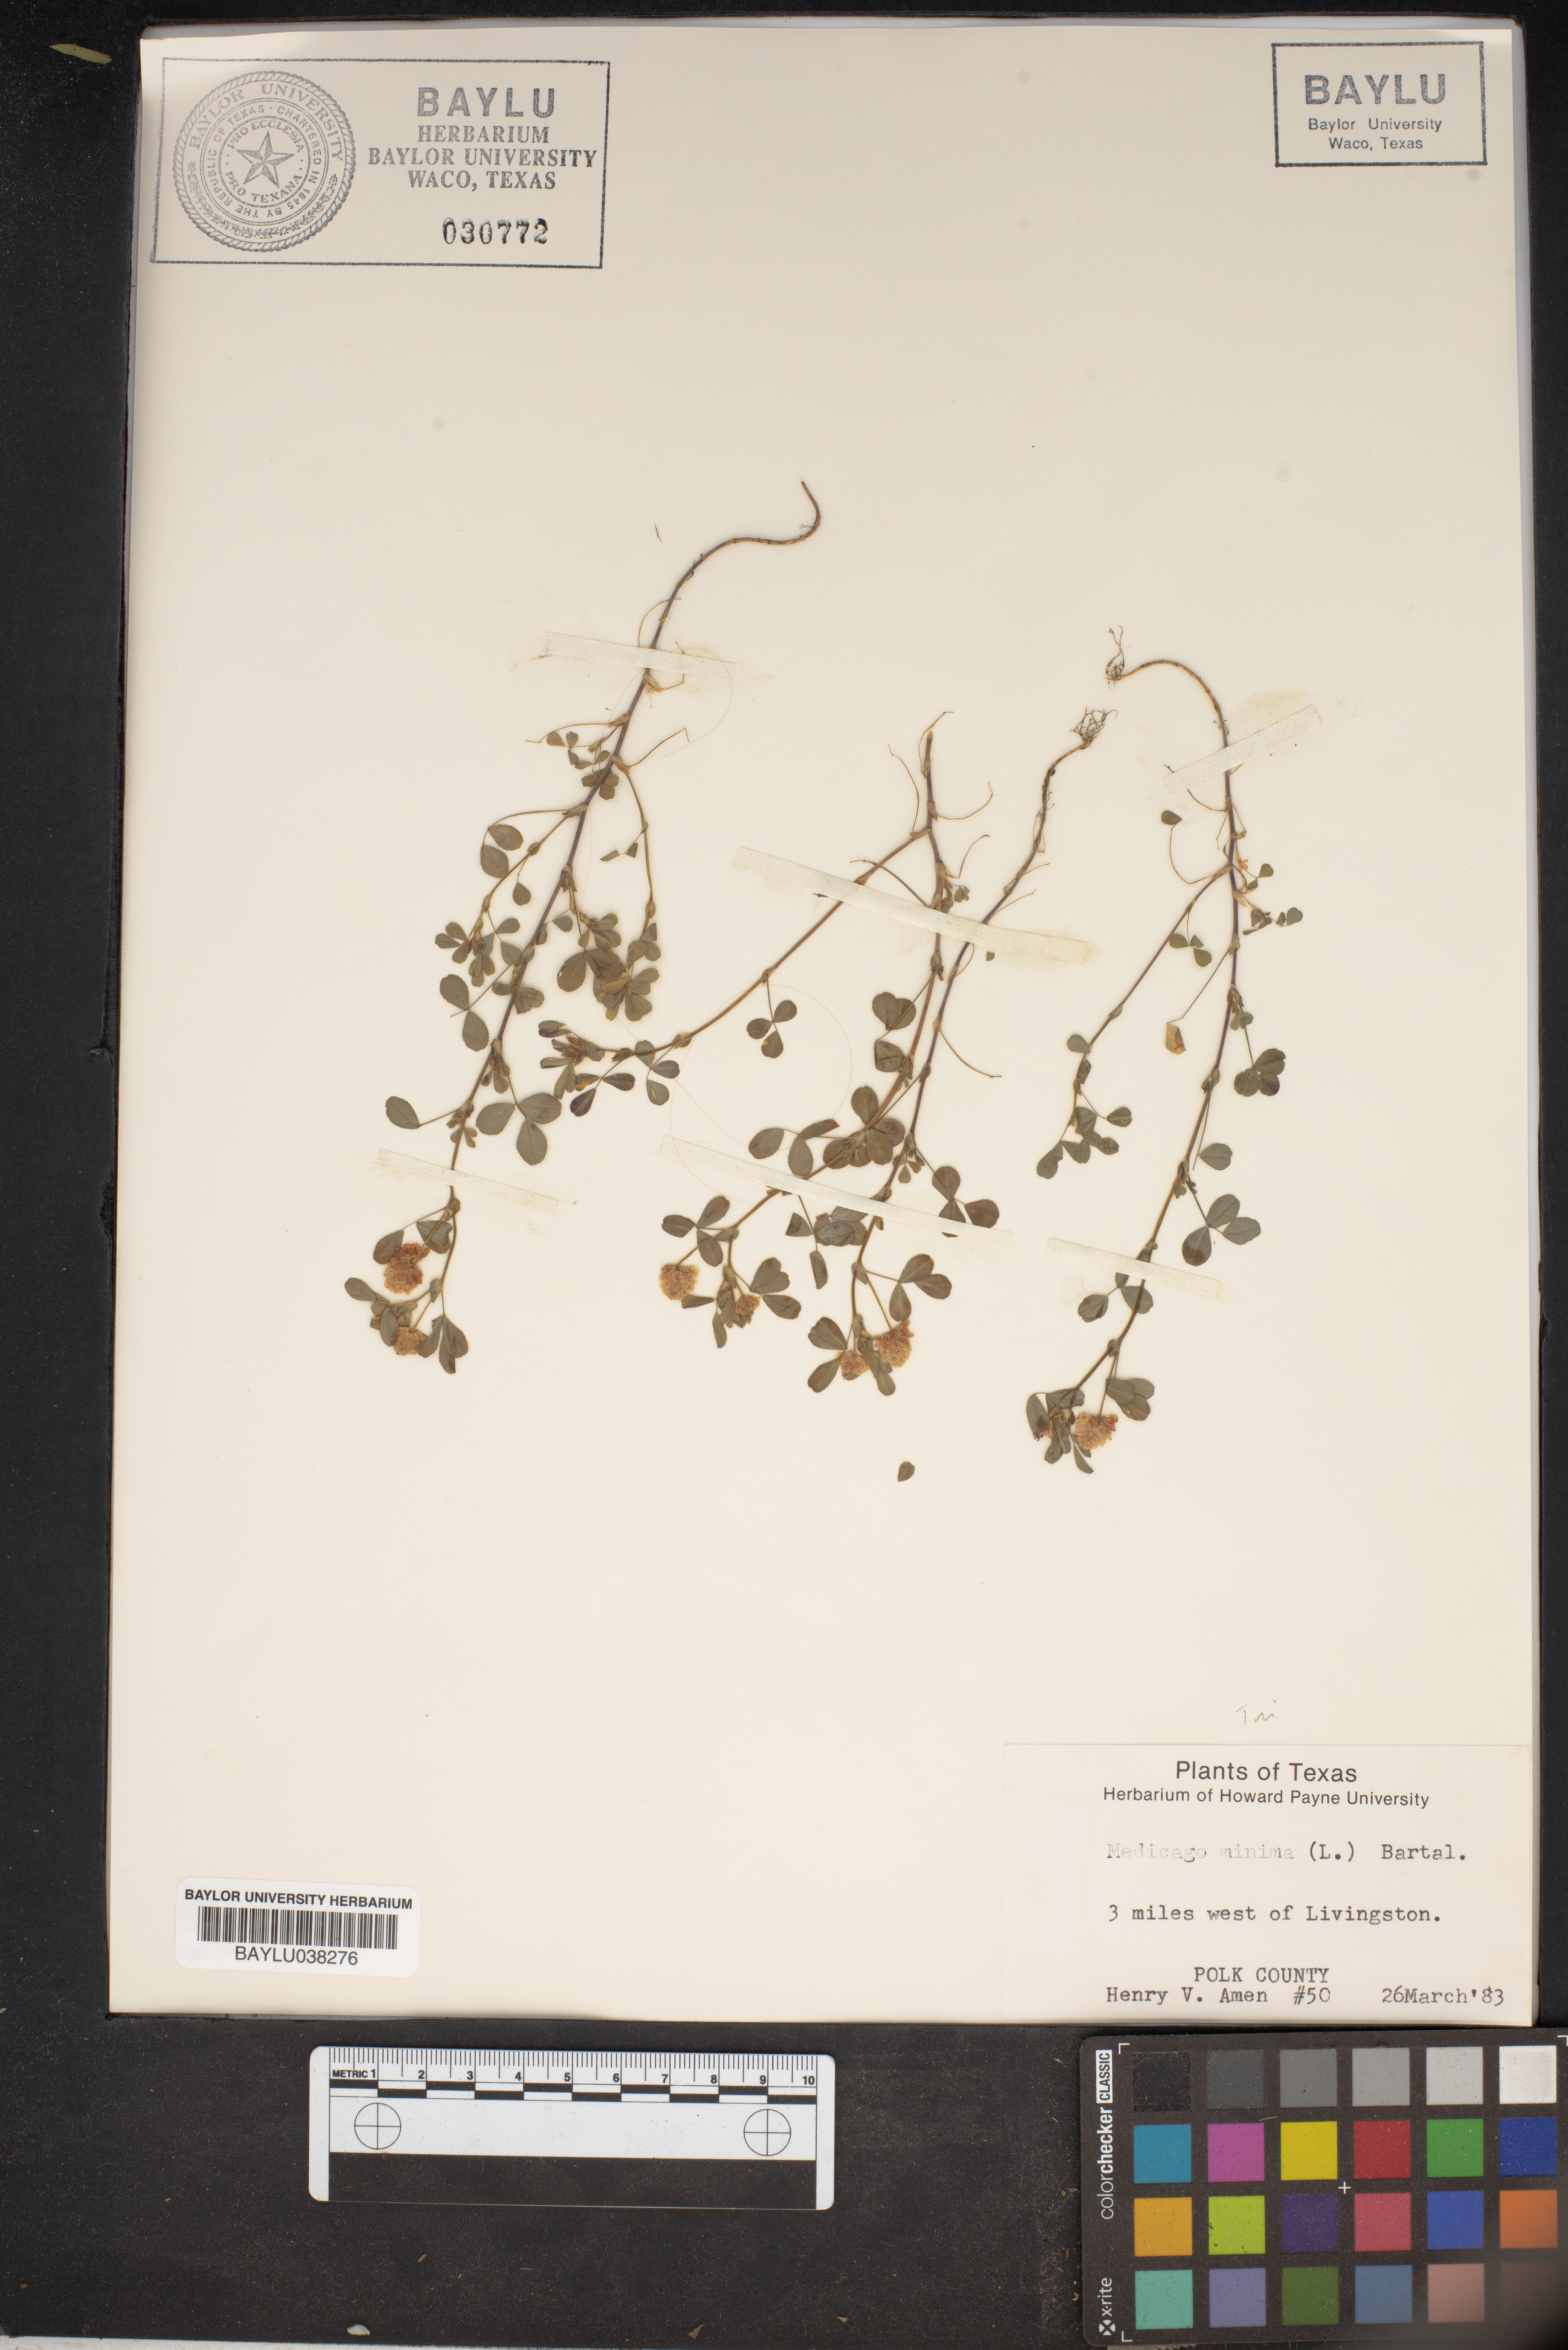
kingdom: Plantae
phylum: Tracheophyta
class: Magnoliopsida
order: Fabales
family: Fabaceae
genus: Medicago
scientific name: Medicago minima
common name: Little bur-clover
